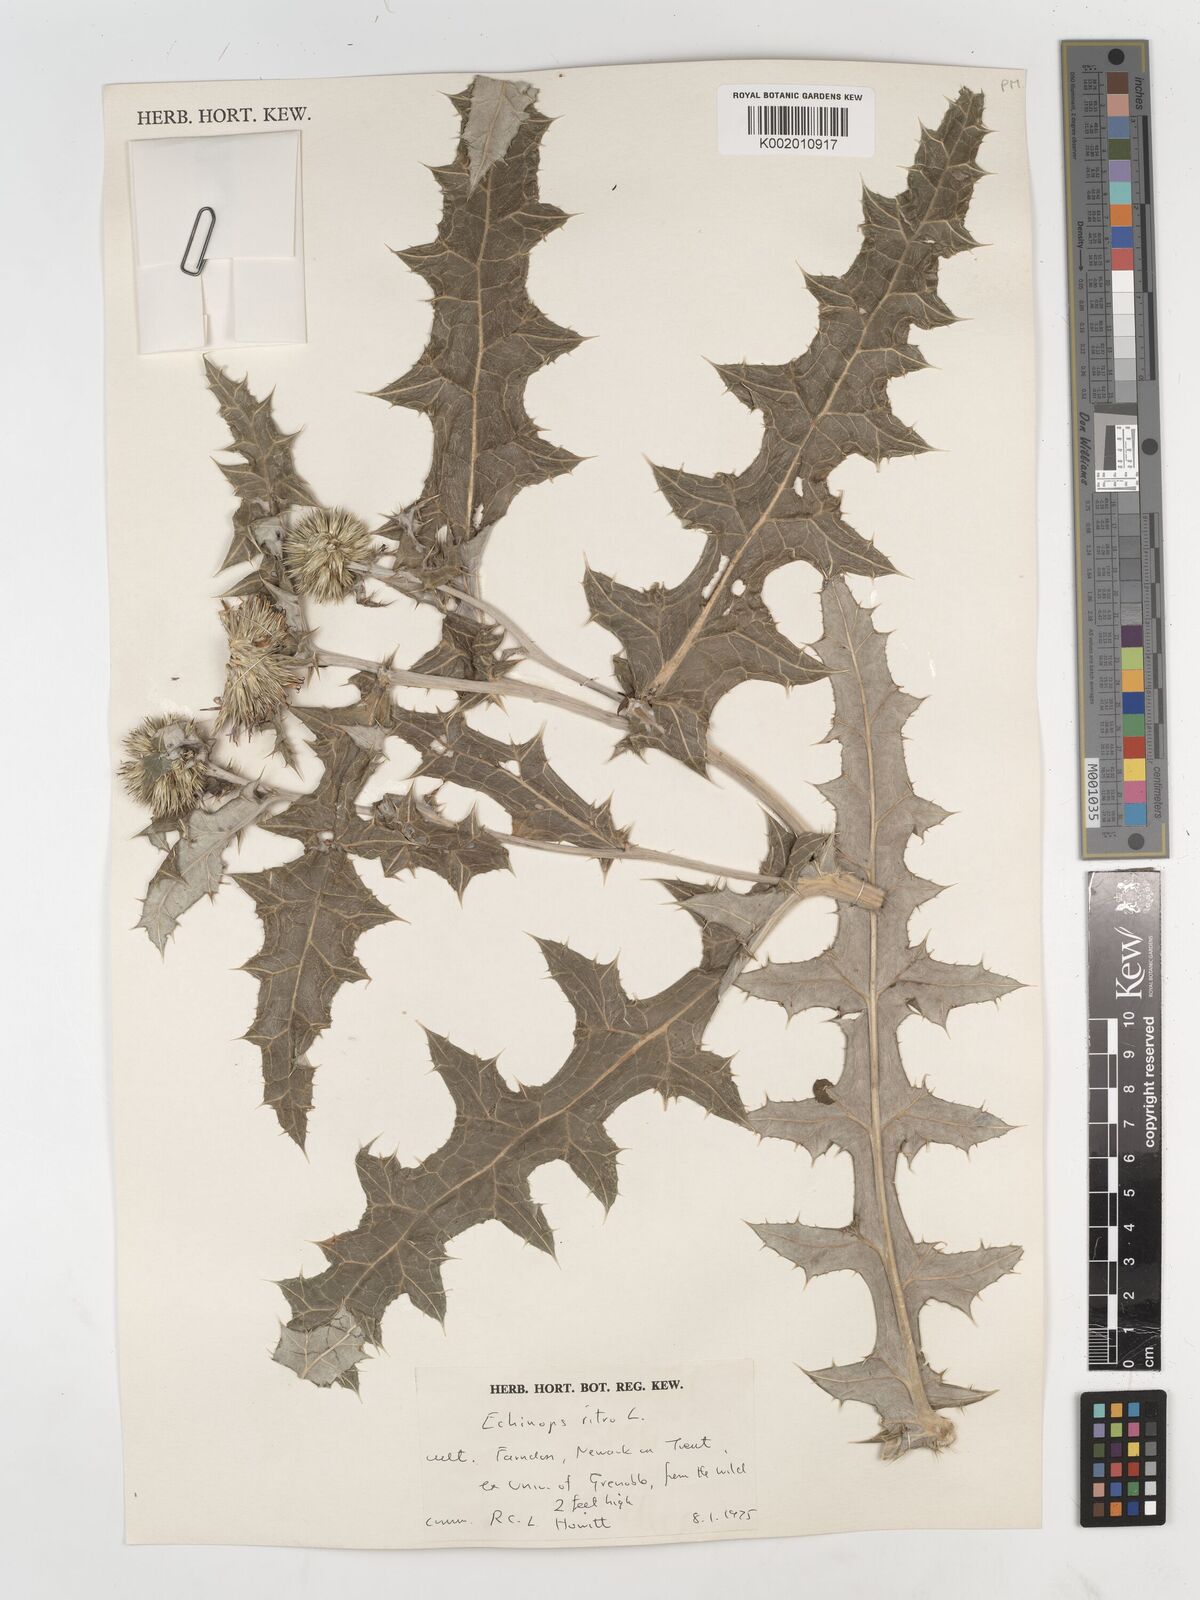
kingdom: Plantae
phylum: Tracheophyta
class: Magnoliopsida
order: Asterales
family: Asteraceae
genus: Echinops
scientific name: Echinops ritro
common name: Globe thistle
